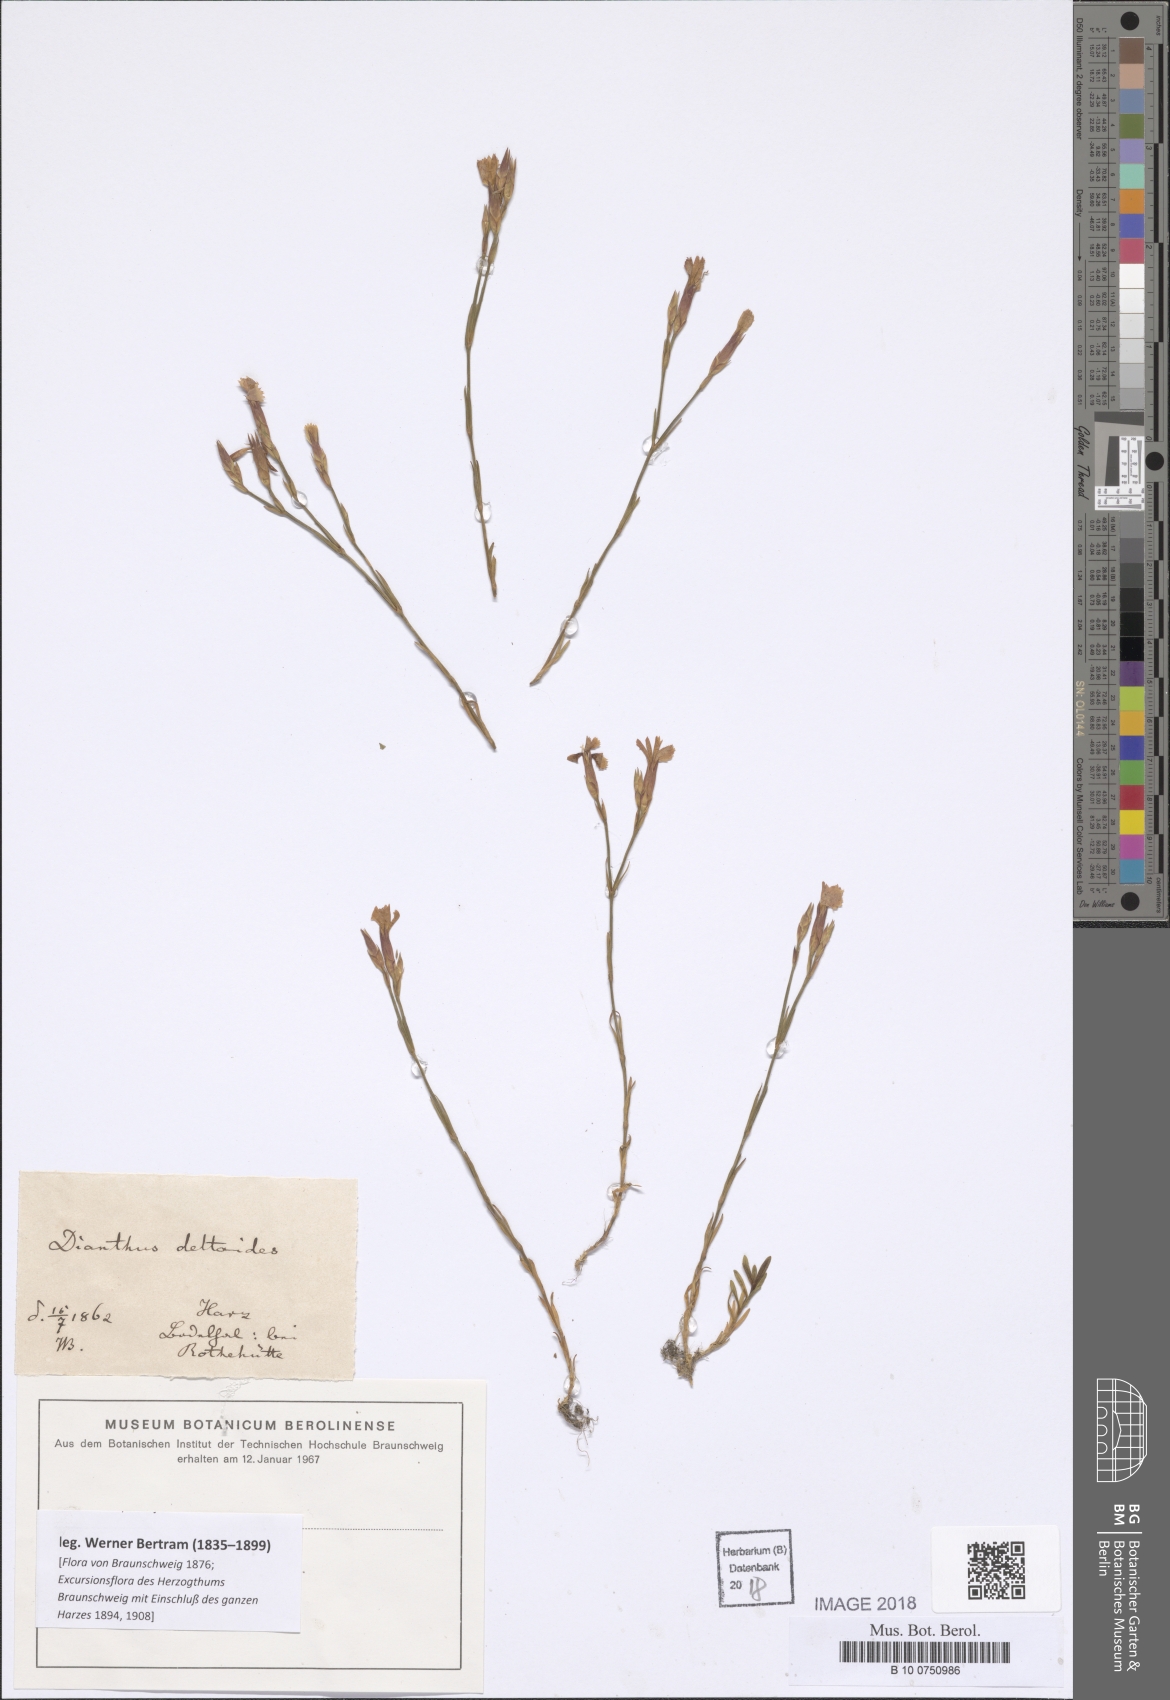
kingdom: Plantae
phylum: Tracheophyta
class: Magnoliopsida
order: Caryophyllales
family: Caryophyllaceae
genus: Dianthus
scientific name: Dianthus deltoides
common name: Maiden pink
